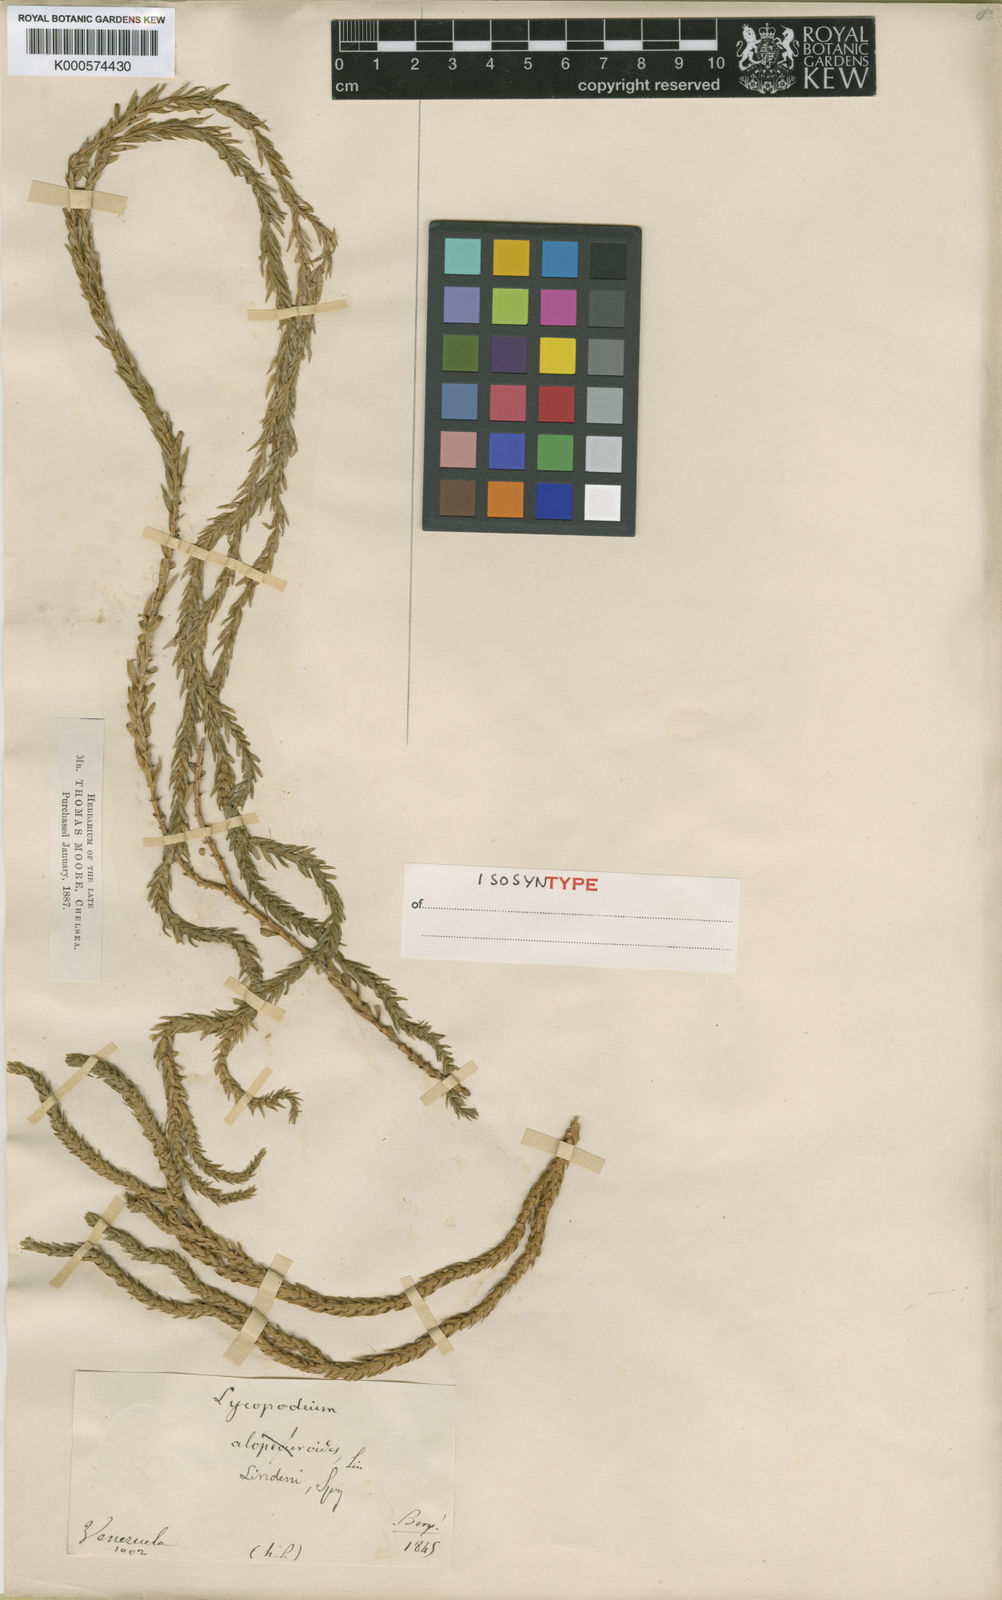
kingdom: Plantae
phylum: Tracheophyta
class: Lycopodiopsida
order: Lycopodiales
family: Lycopodiaceae
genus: Phlegmariurus
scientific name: Phlegmariurus lindenii
